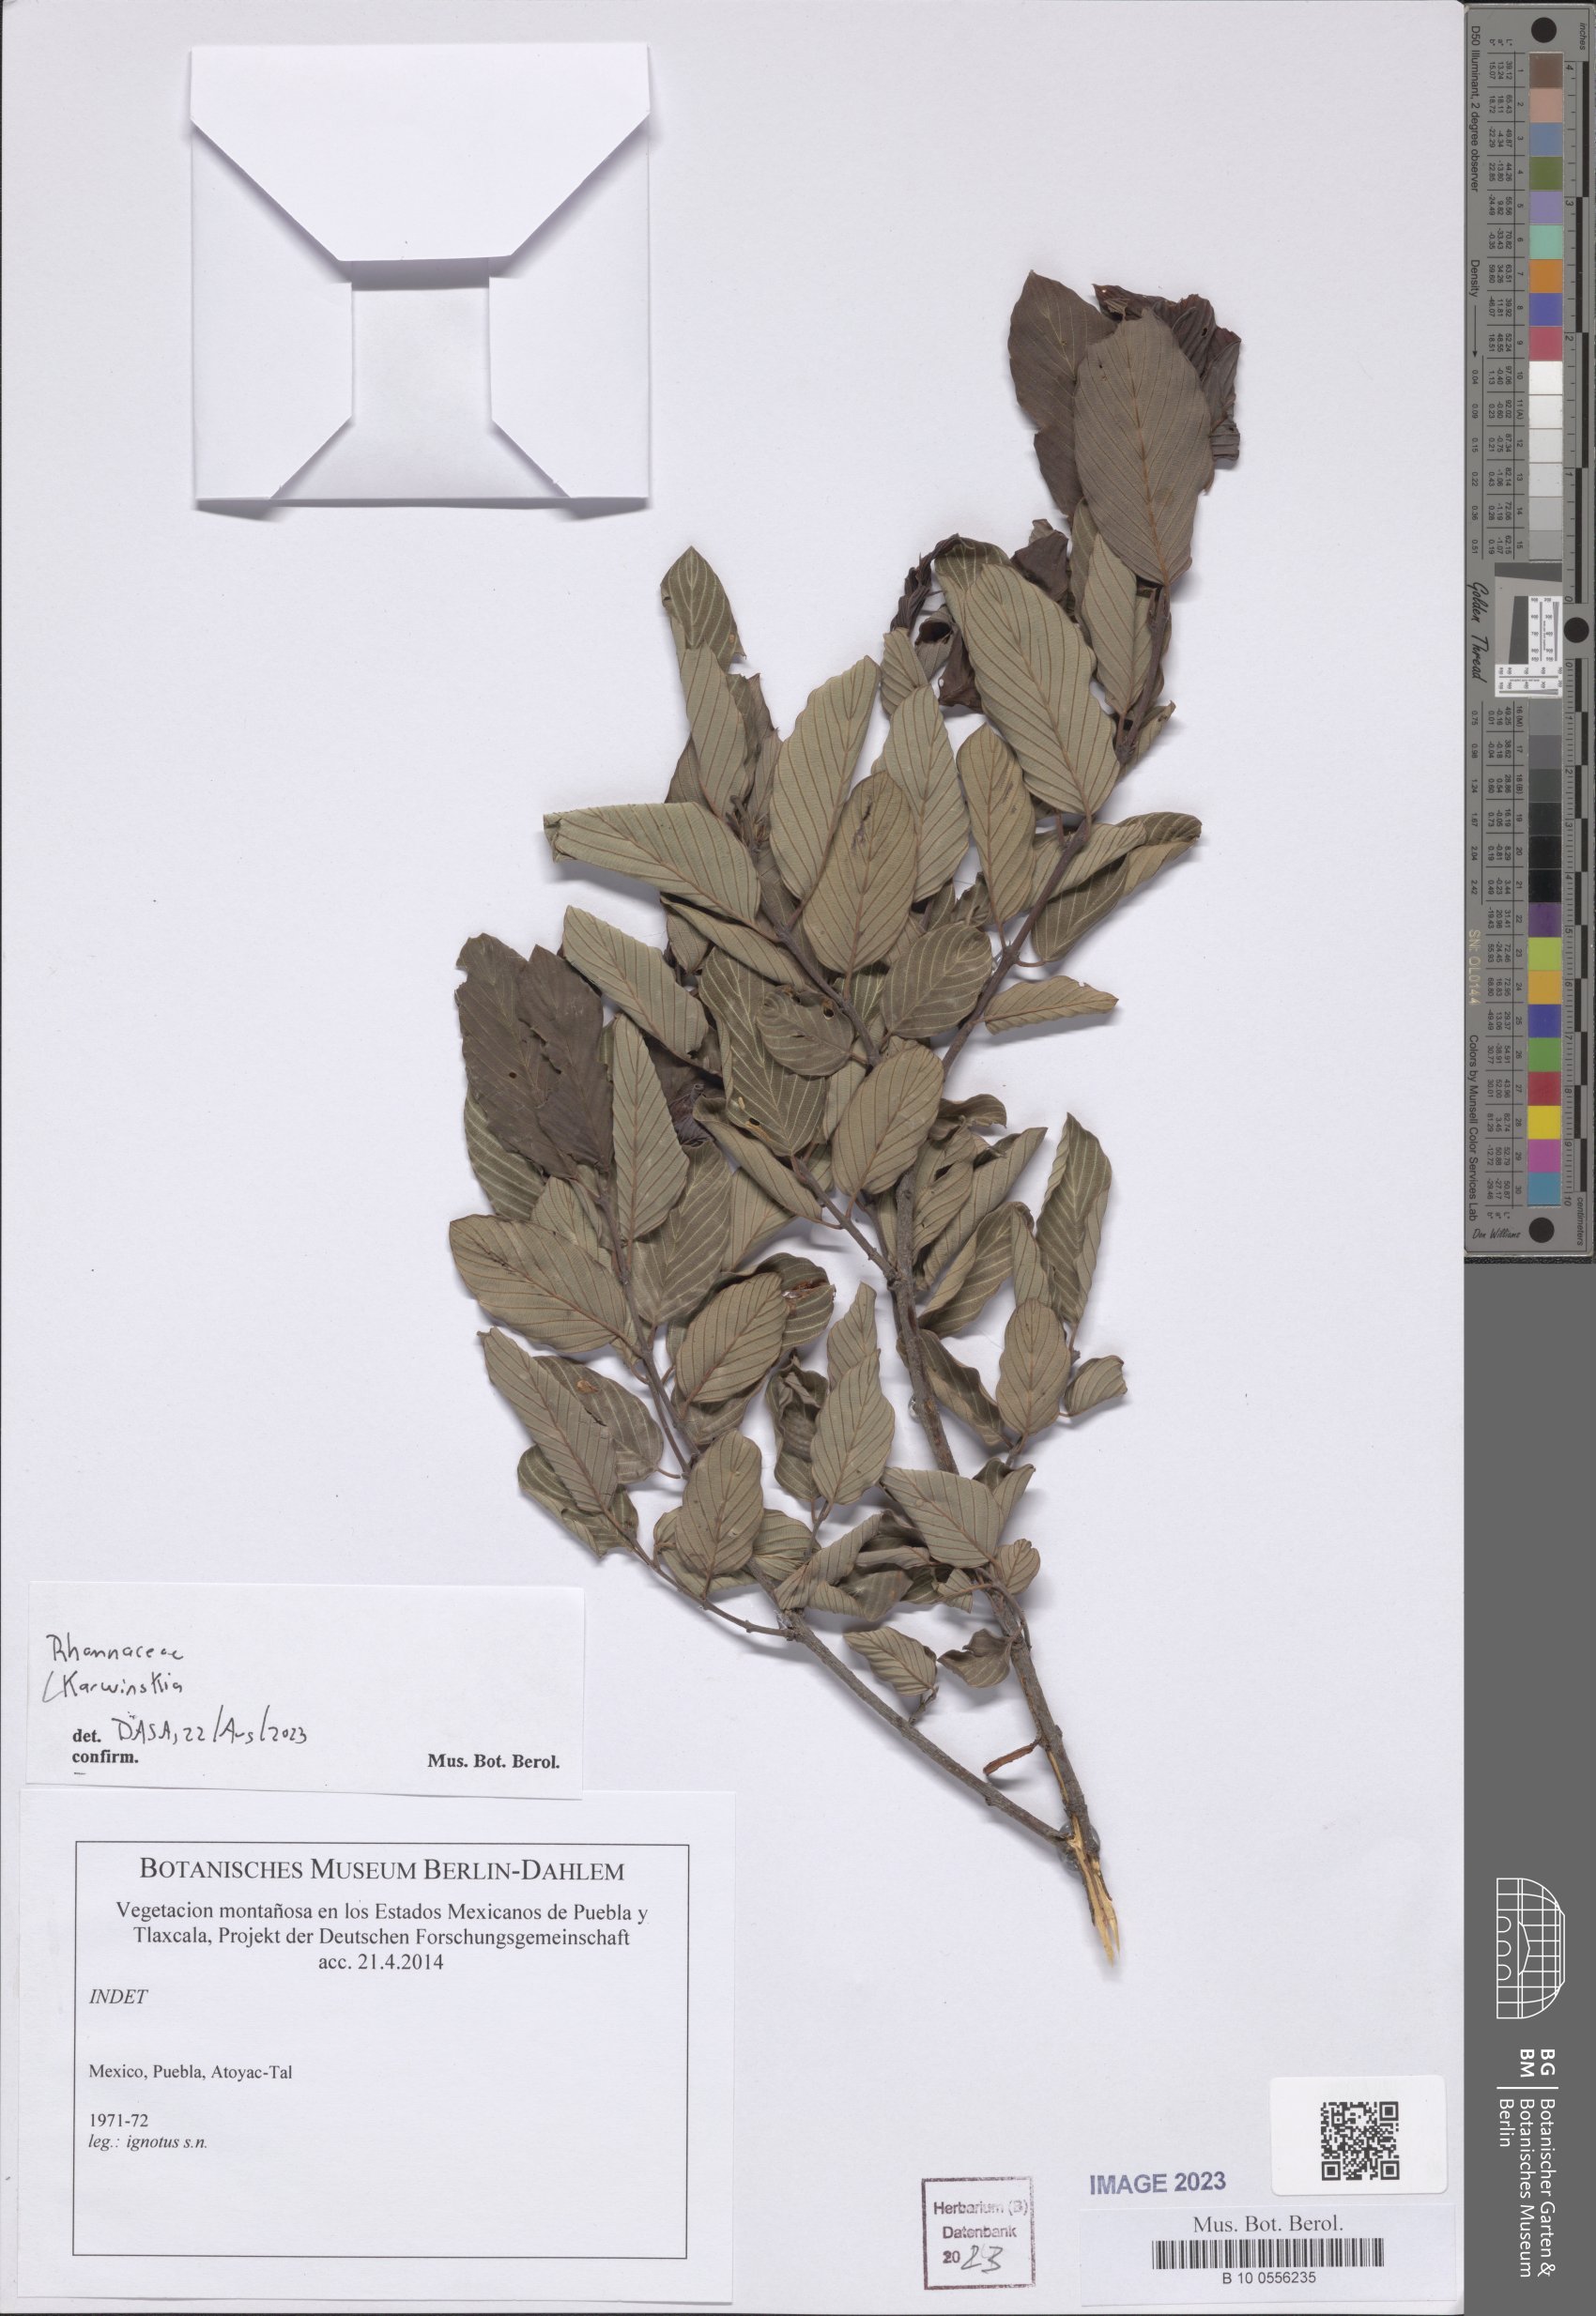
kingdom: Plantae
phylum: Tracheophyta
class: Magnoliopsida
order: Rosales
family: Rhamnaceae
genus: Karwinskia
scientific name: Karwinskia
